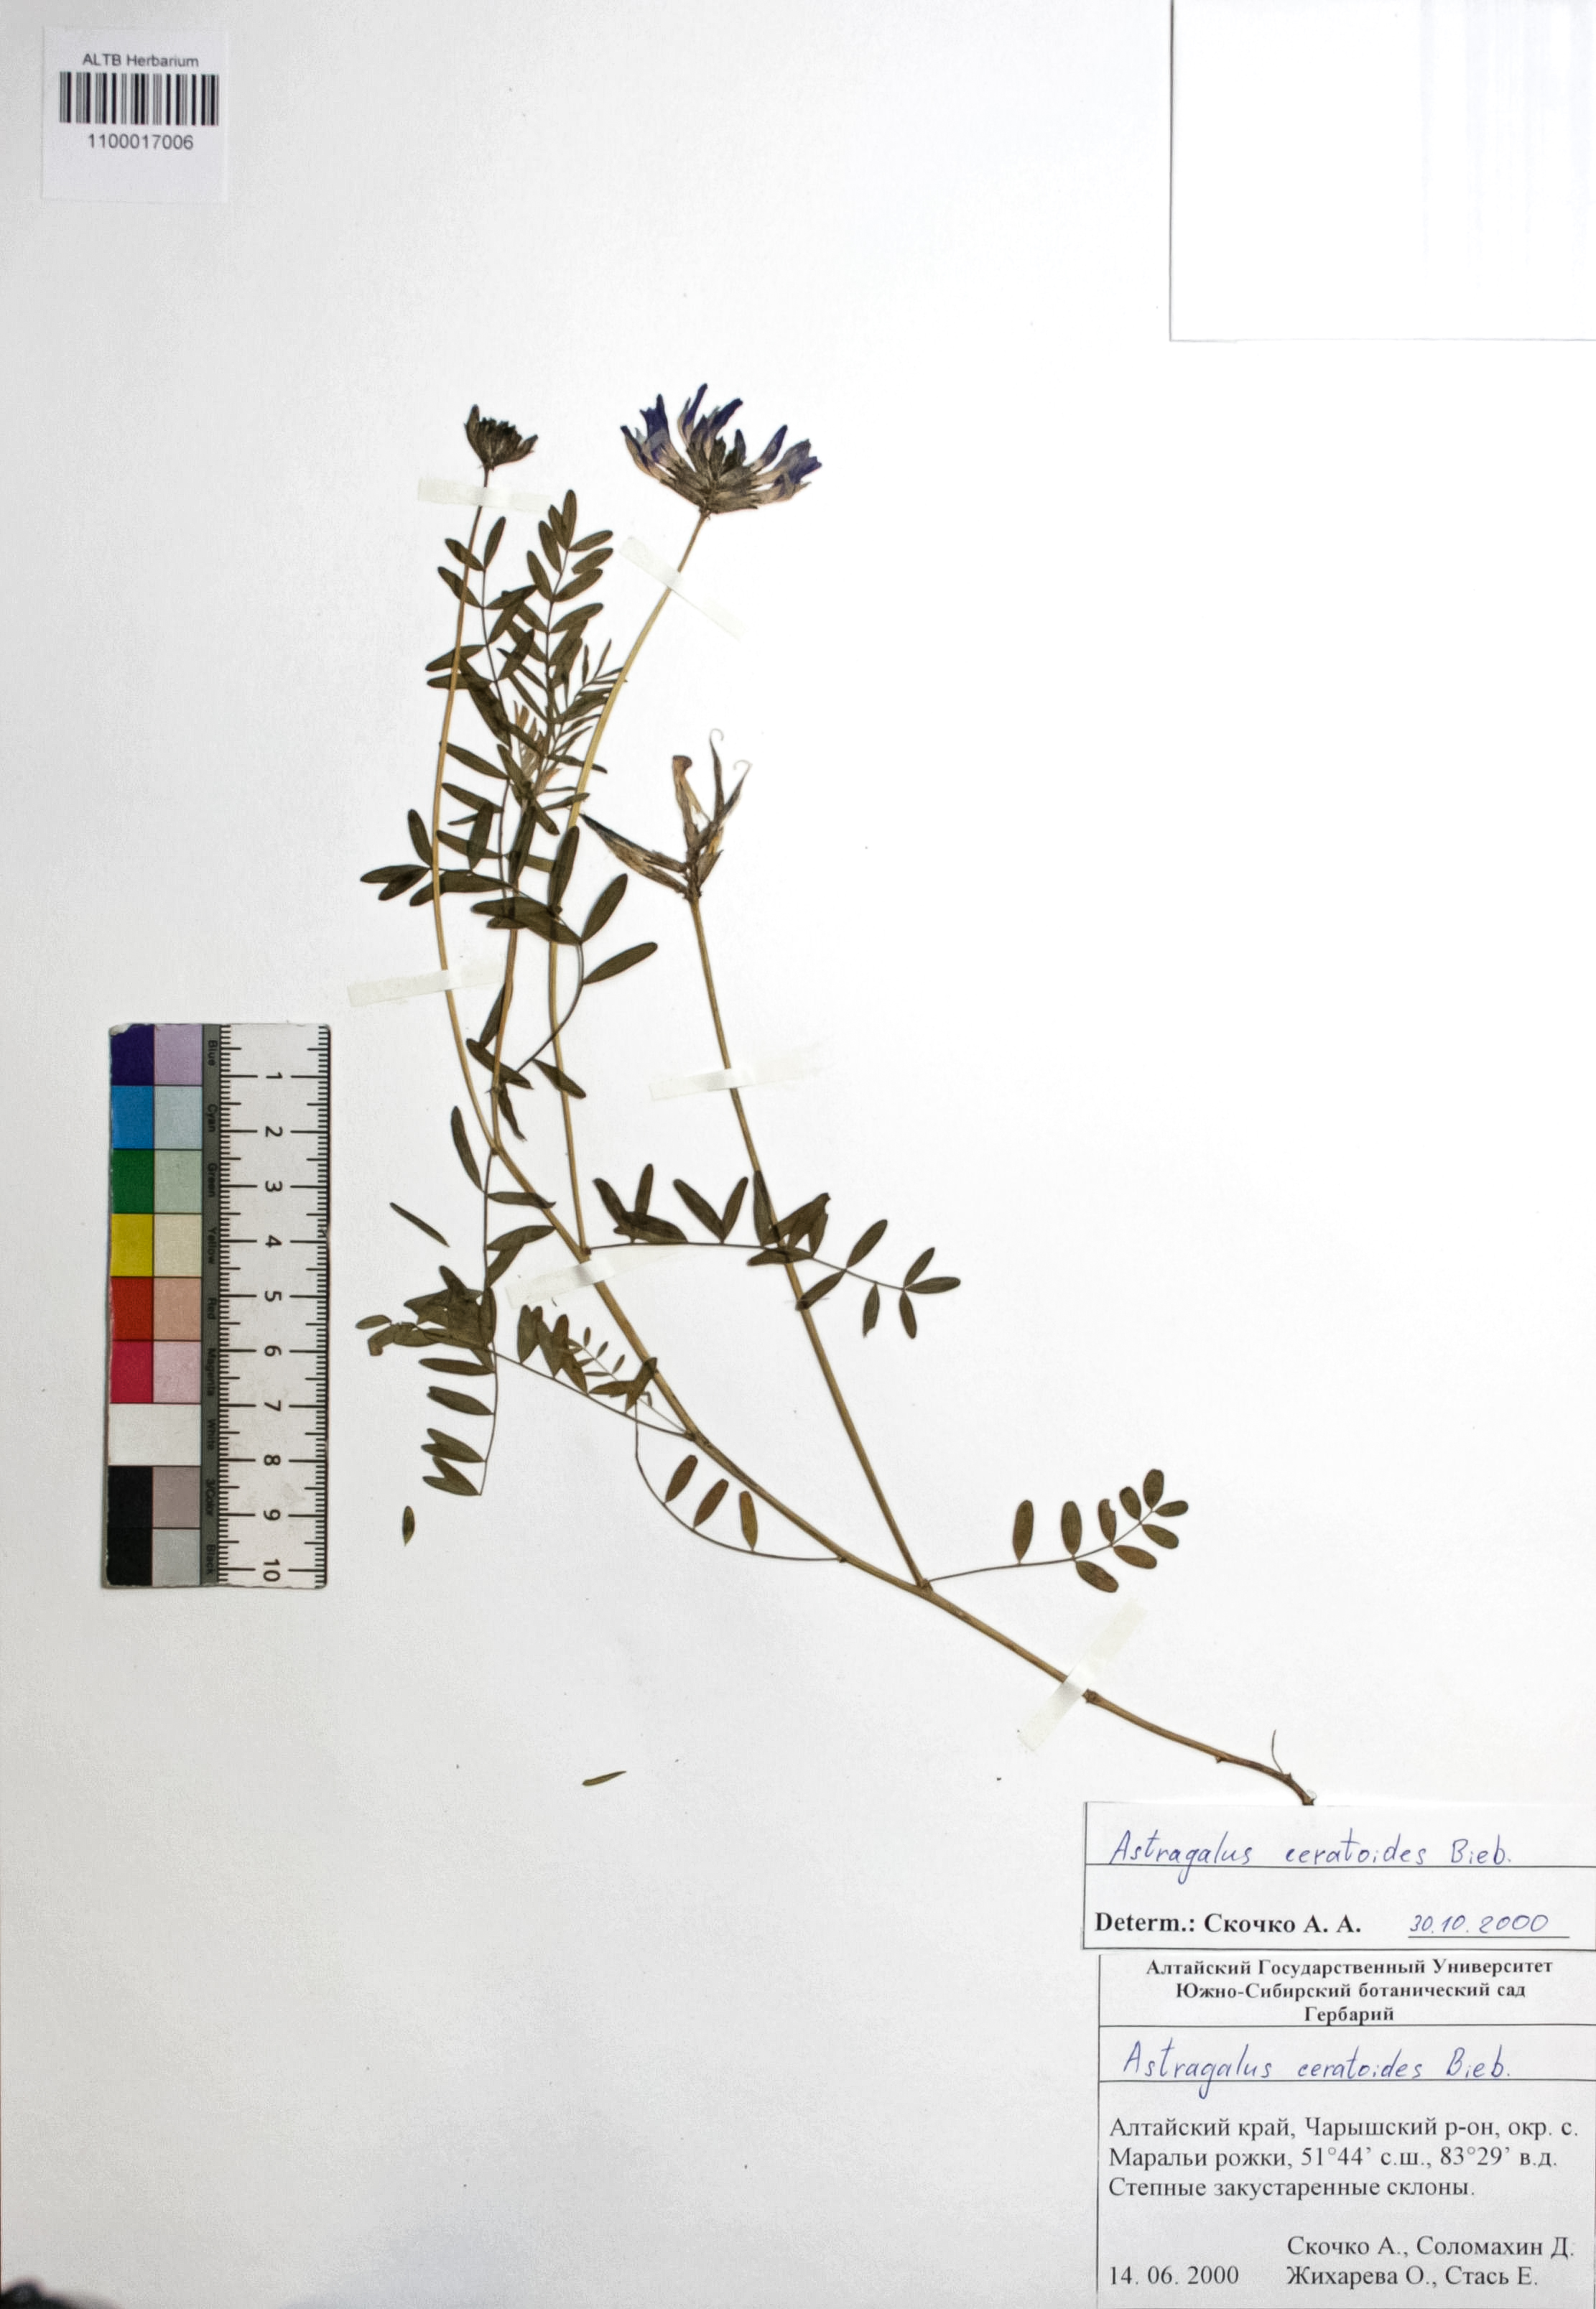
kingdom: Plantae
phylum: Tracheophyta
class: Magnoliopsida
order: Fabales
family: Fabaceae
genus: Astragalus
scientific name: Astragalus ceratoides
